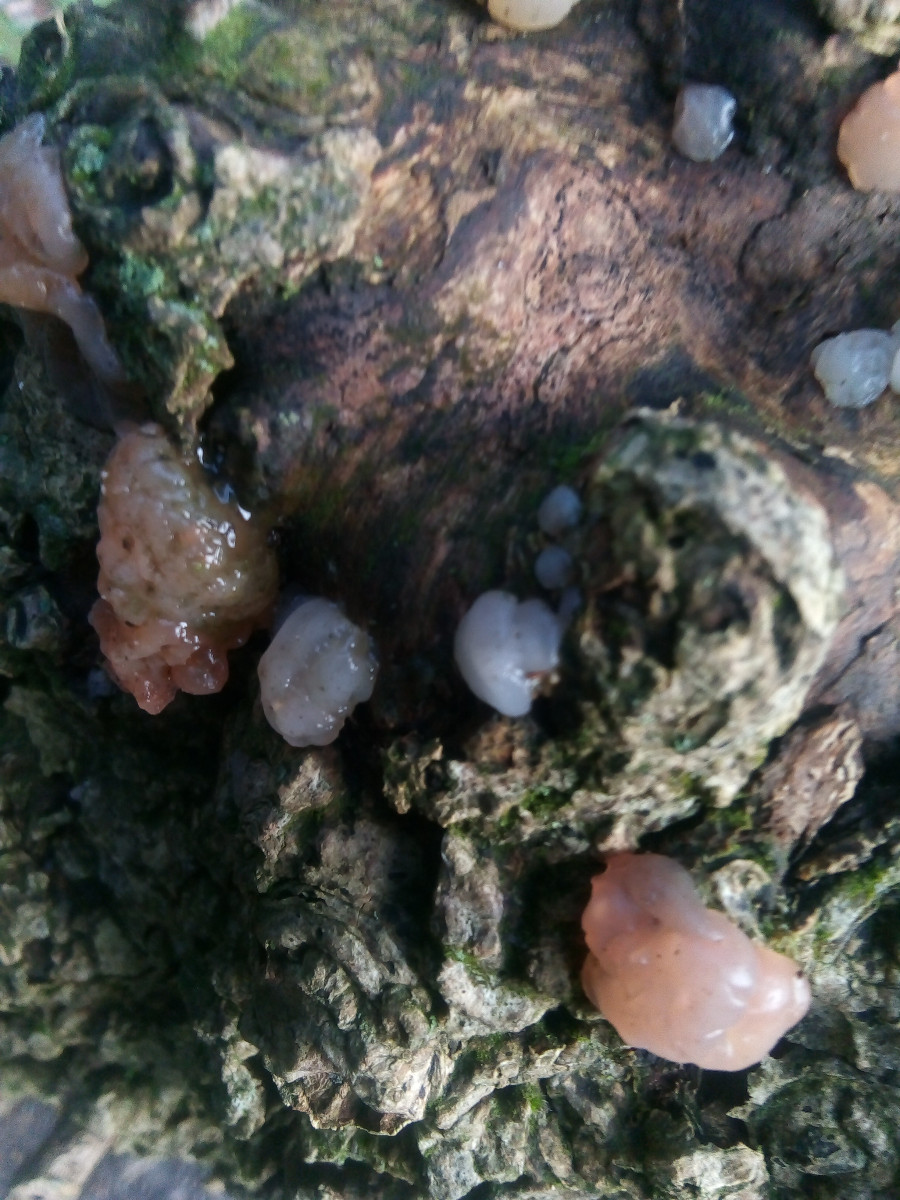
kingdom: Fungi
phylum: Basidiomycota
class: Agaricomycetes
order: Auriculariales
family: Hyaloriaceae
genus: Myxarium
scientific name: Myxarium nucleatum
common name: klar bævretop
